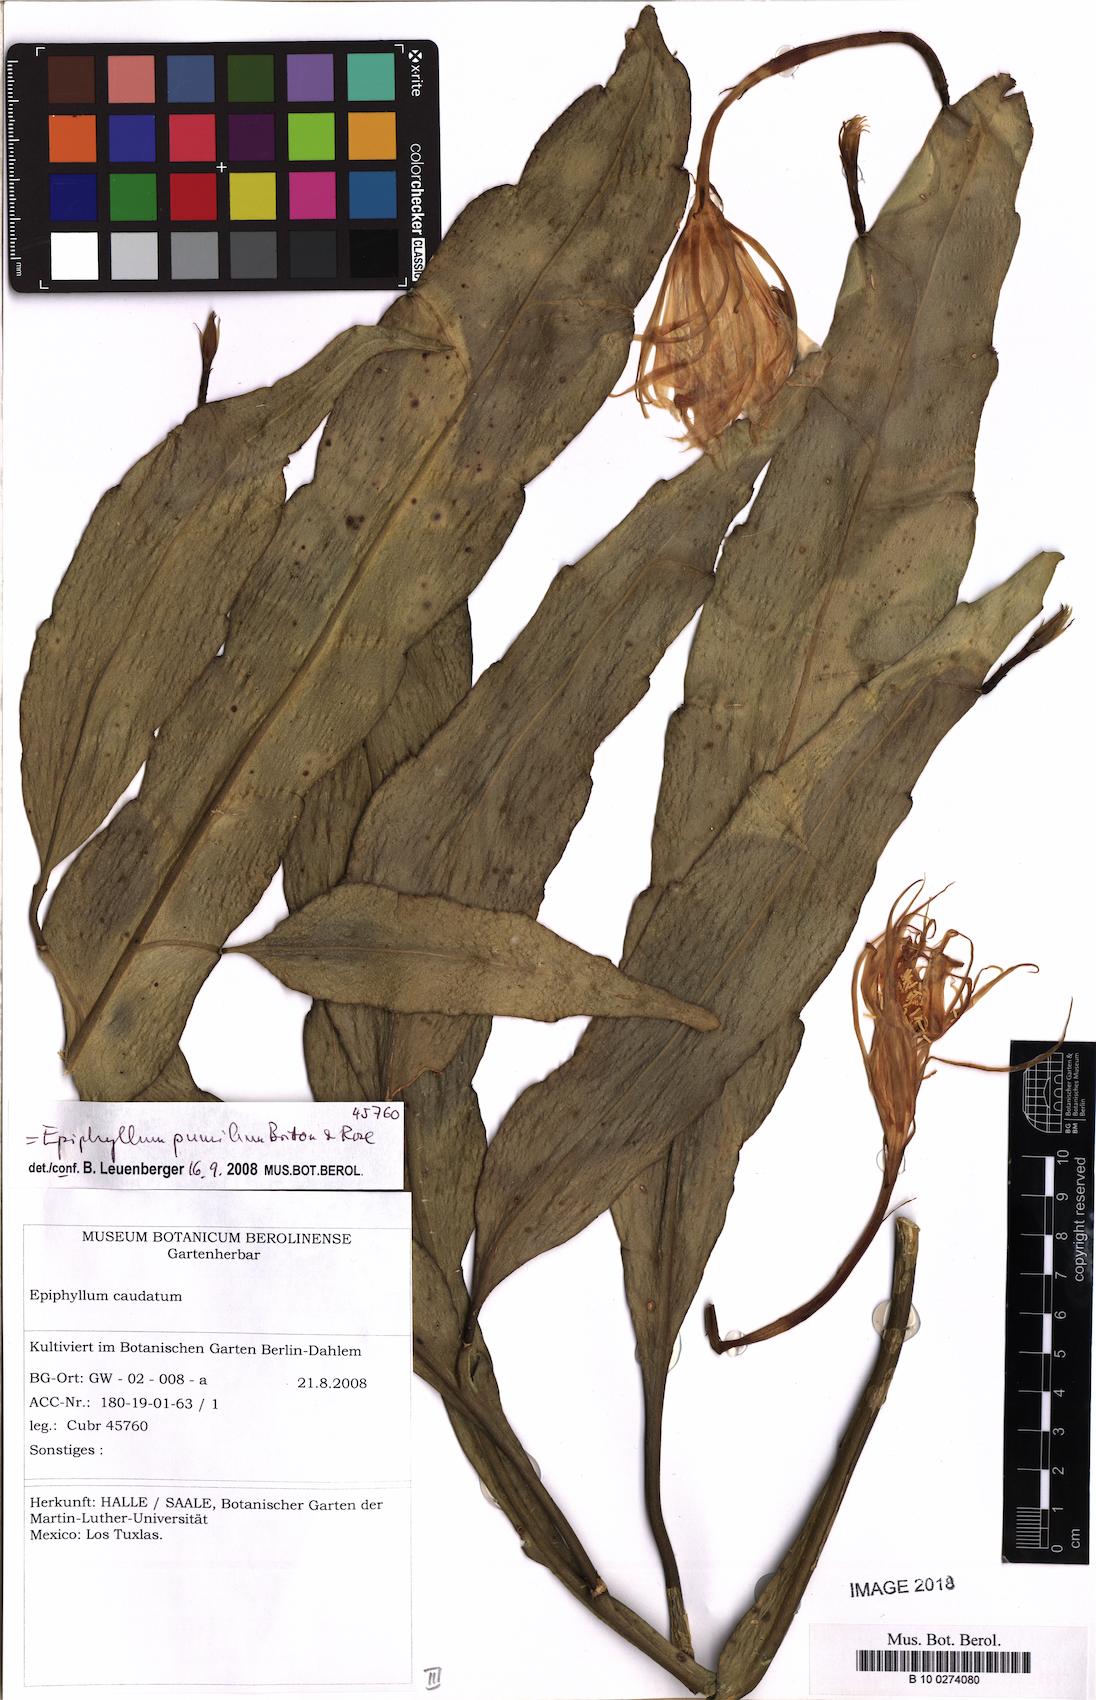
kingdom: Plantae
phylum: Tracheophyta
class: Magnoliopsida
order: Caryophyllales
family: Cactaceae
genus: Epiphyllum
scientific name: Epiphyllum pumilum
